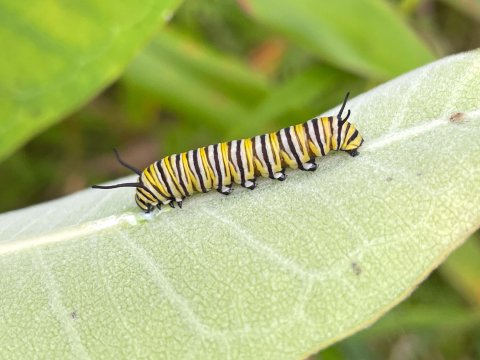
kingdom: Animalia
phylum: Arthropoda
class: Insecta
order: Lepidoptera
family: Nymphalidae
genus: Danaus
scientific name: Danaus plexippus
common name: Monarch
